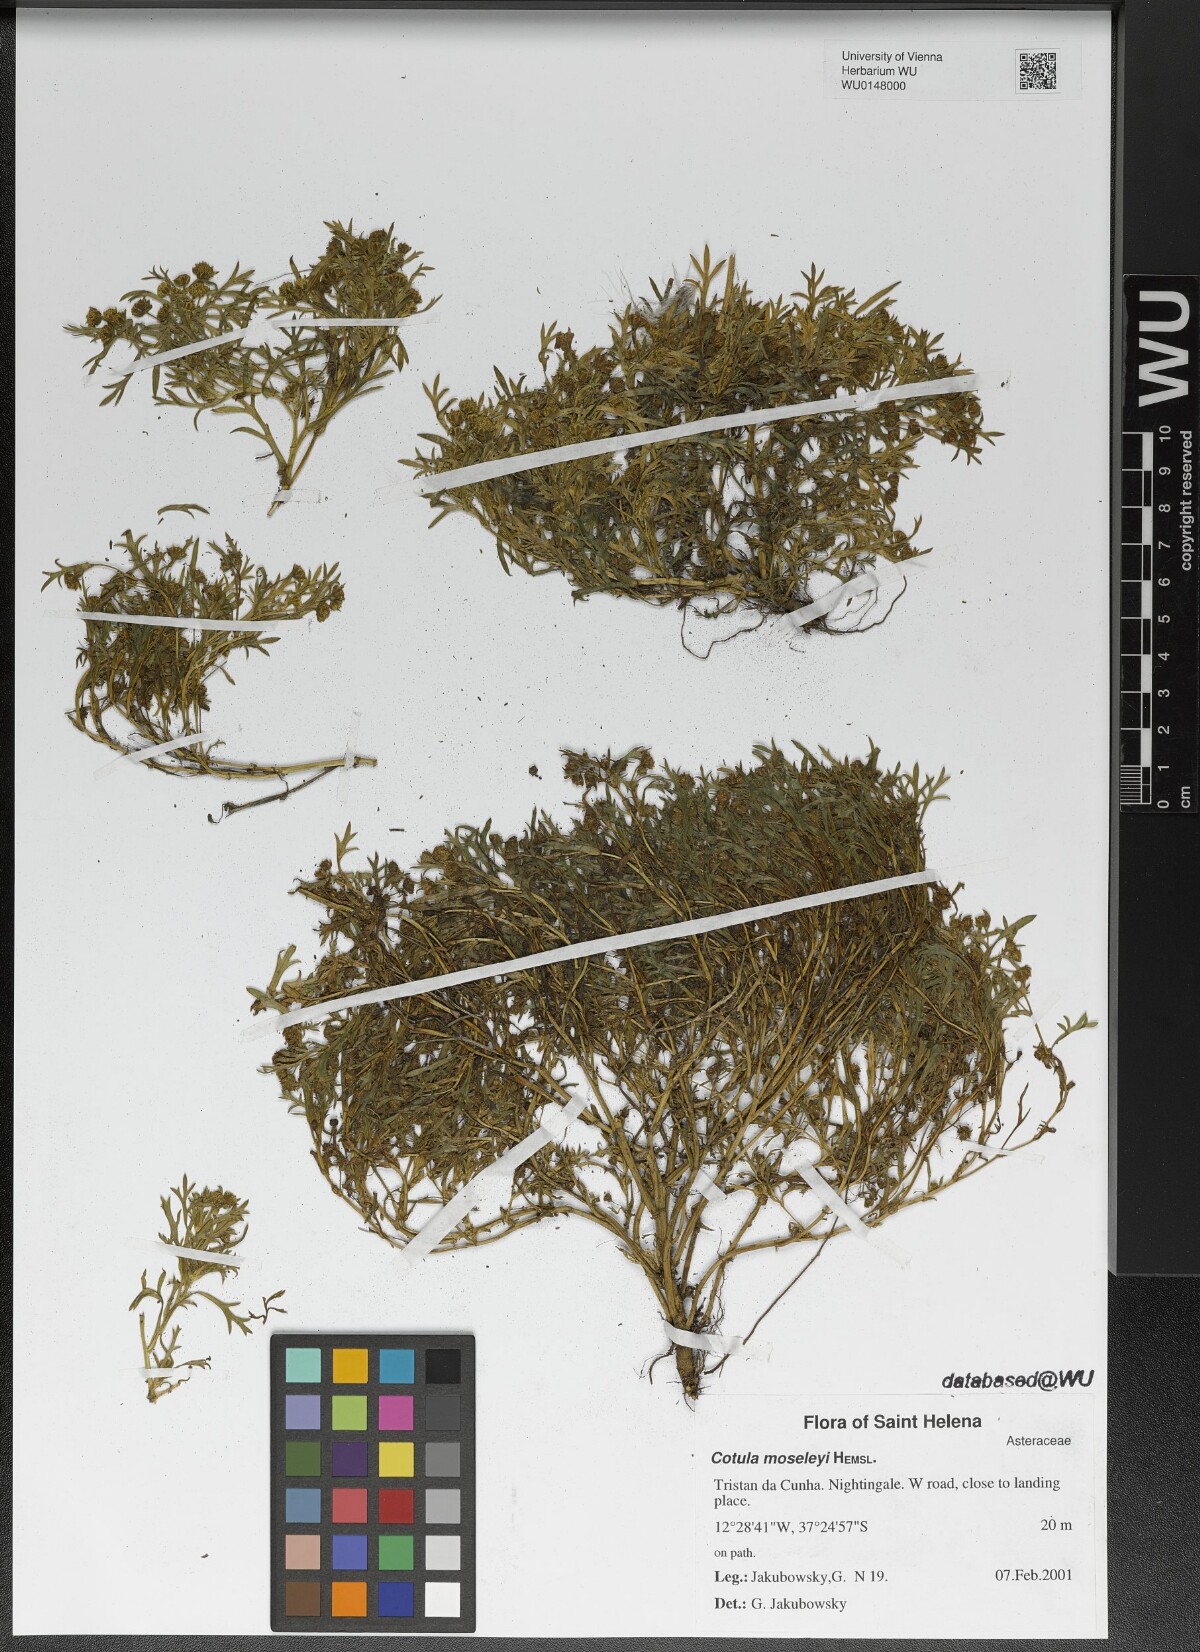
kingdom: Plantae
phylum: Tracheophyta
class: Magnoliopsida
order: Asterales
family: Asteraceae
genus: Cotula
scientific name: Cotula moseleyi
